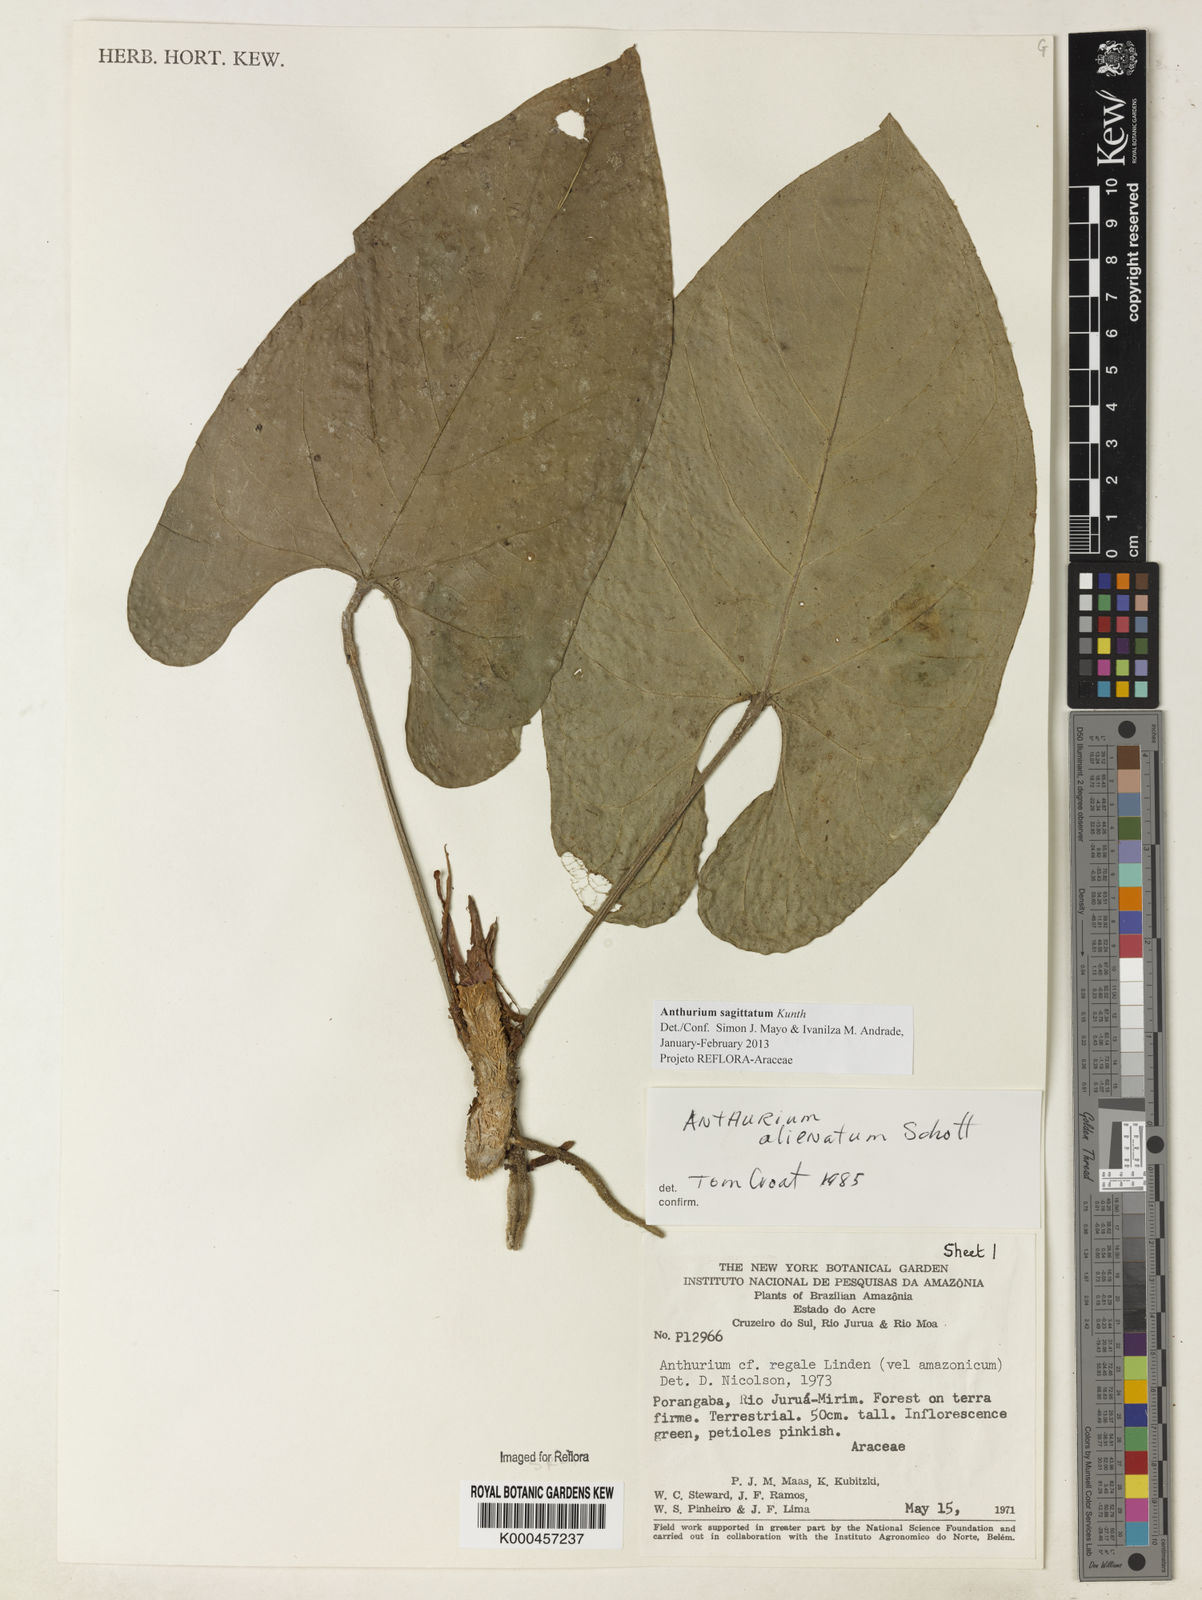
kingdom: Plantae
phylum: Tracheophyta
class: Liliopsida
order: Alismatales
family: Araceae
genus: Anthurium
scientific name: Anthurium sagittatum
